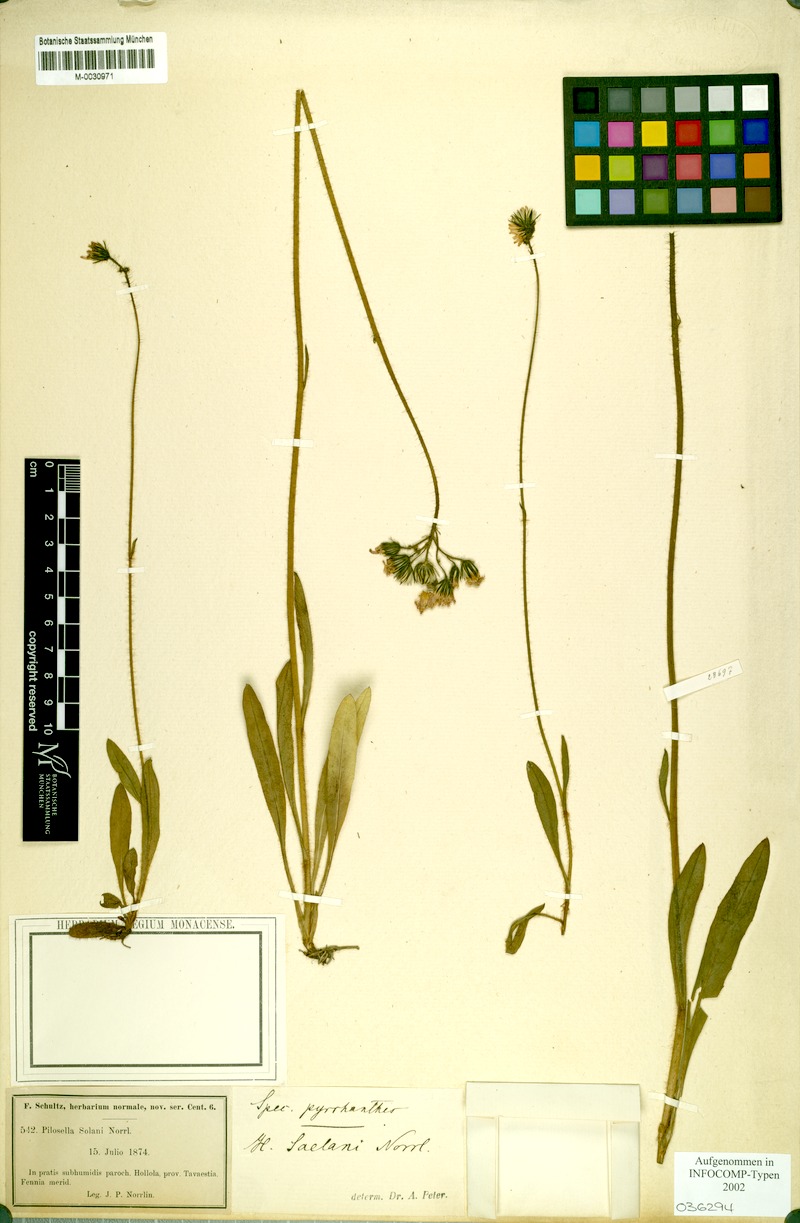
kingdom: Plantae
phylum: Tracheophyta
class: Magnoliopsida
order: Asterales
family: Asteraceae
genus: Pilosella
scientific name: Pilosella blyttiana
